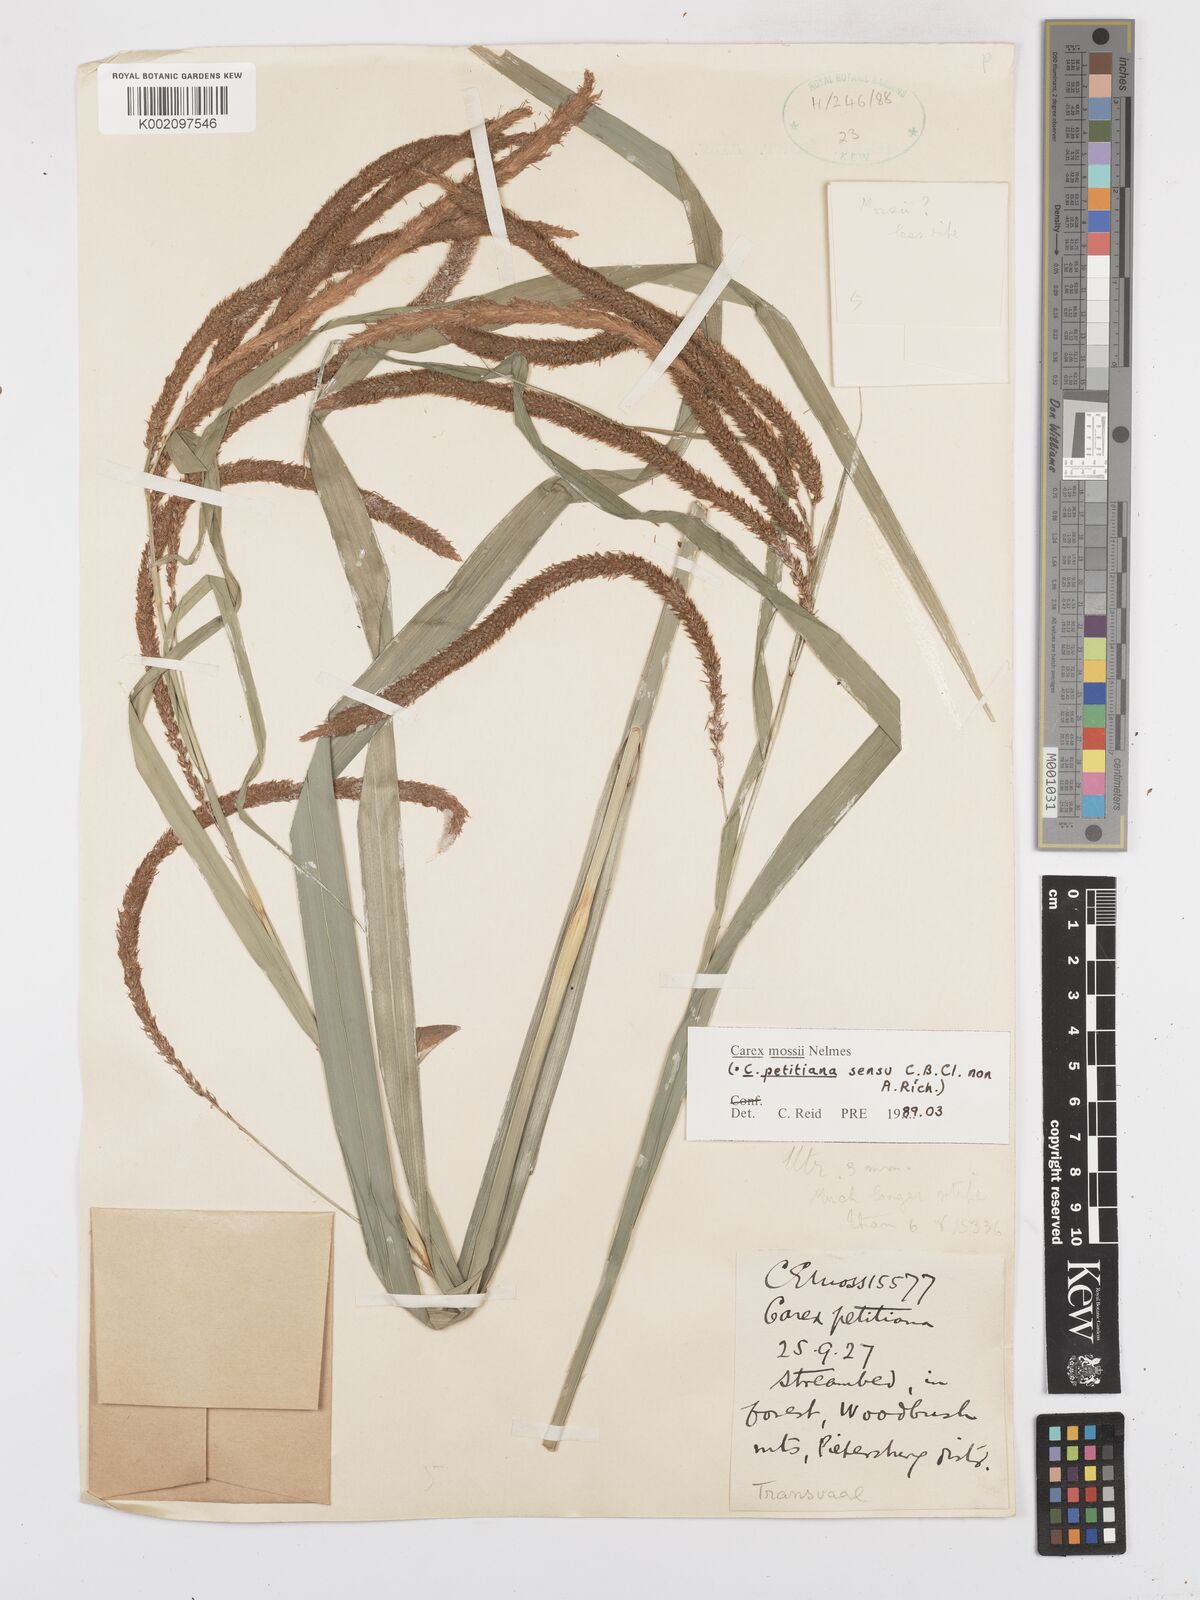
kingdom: Plantae
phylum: Tracheophyta
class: Liliopsida
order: Poales
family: Cyperaceae
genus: Carex
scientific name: Carex petitiana
